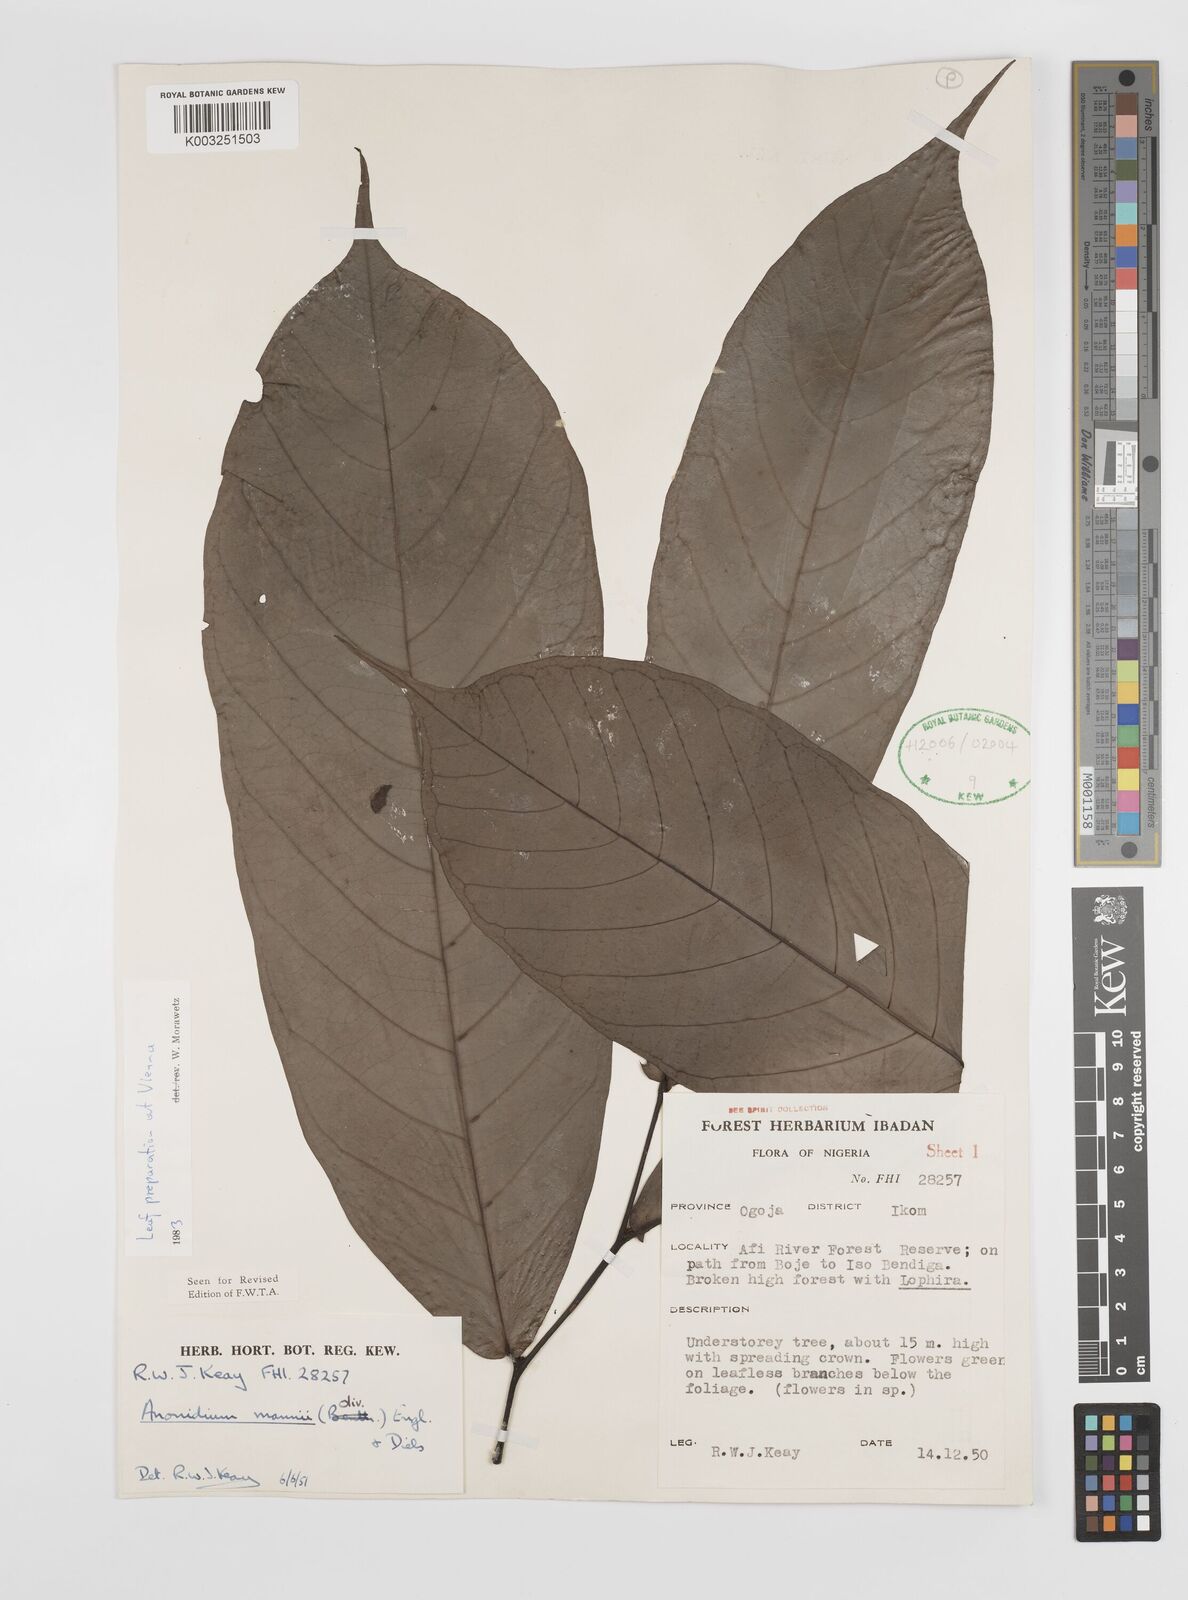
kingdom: Plantae
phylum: Tracheophyta
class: Magnoliopsida
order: Magnoliales
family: Annonaceae
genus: Anonidium
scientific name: Anonidium mannii
